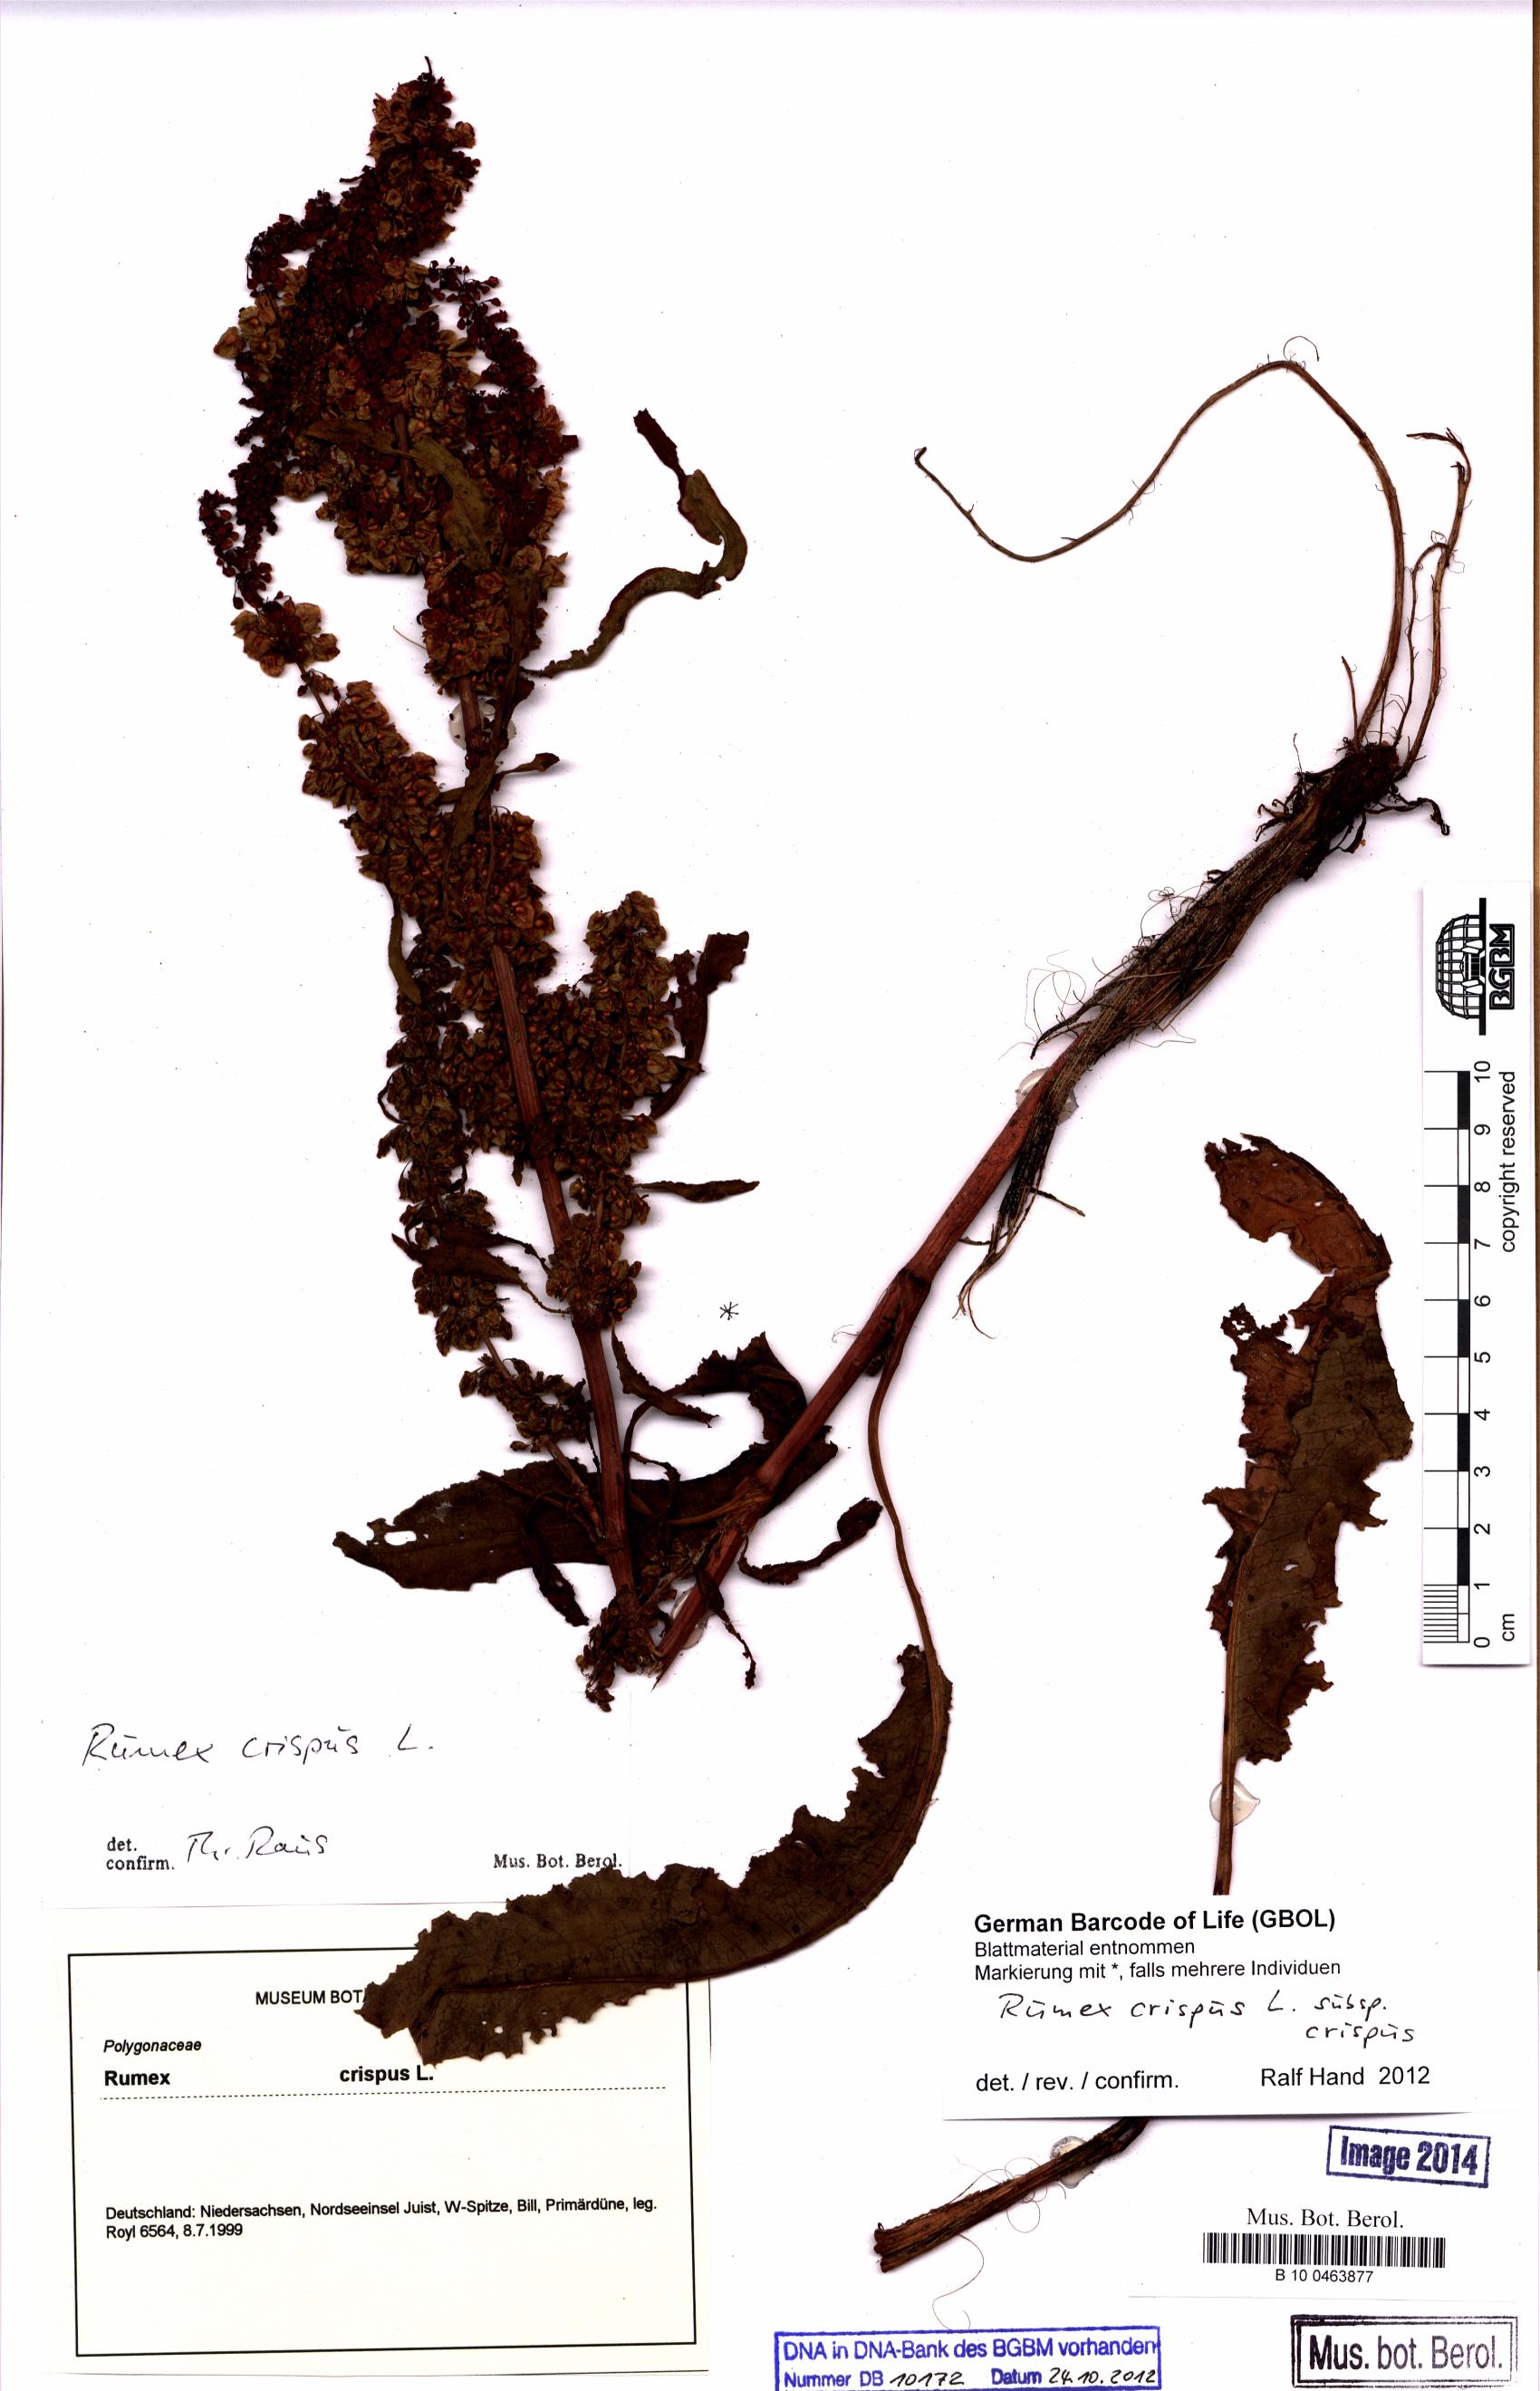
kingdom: Plantae
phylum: Tracheophyta
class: Magnoliopsida
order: Caryophyllales
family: Polygonaceae
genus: Rumex
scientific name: Rumex crispus
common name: Curled dock
